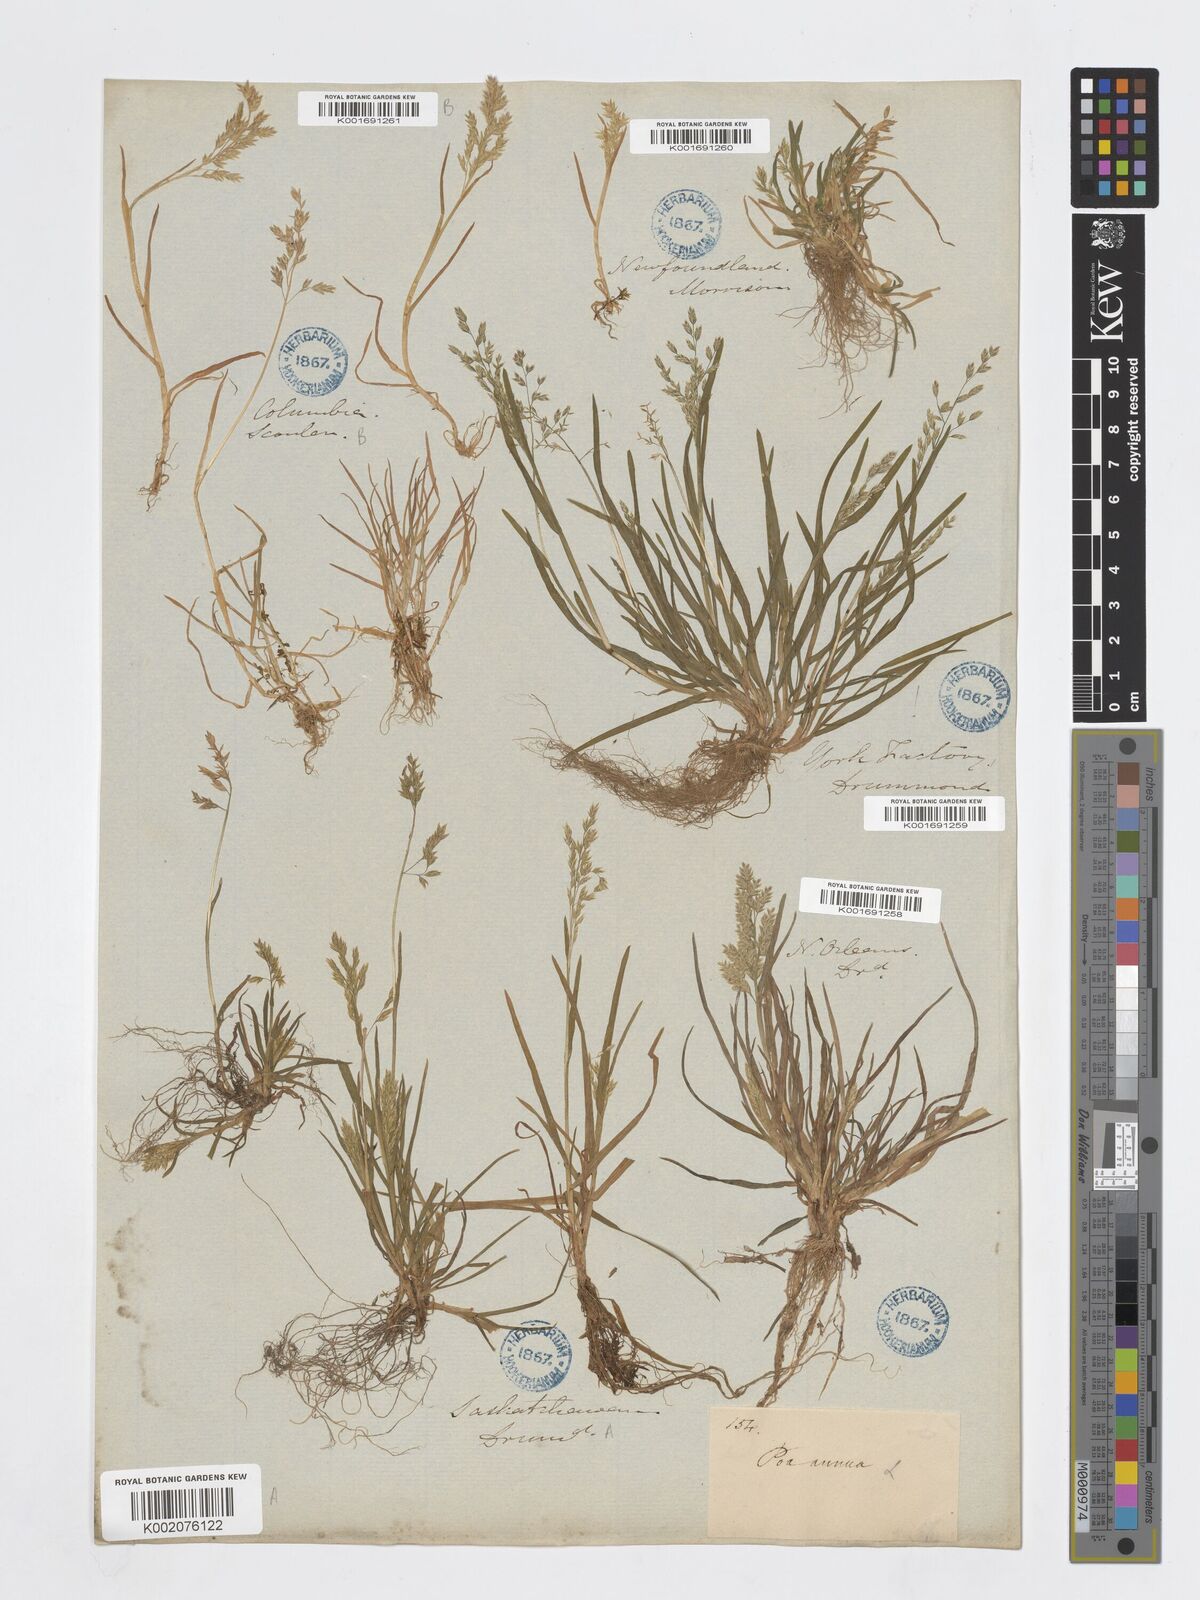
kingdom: Plantae
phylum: Tracheophyta
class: Liliopsida
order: Poales
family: Poaceae
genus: Poa
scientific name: Poa annua
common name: Annual bluegrass
